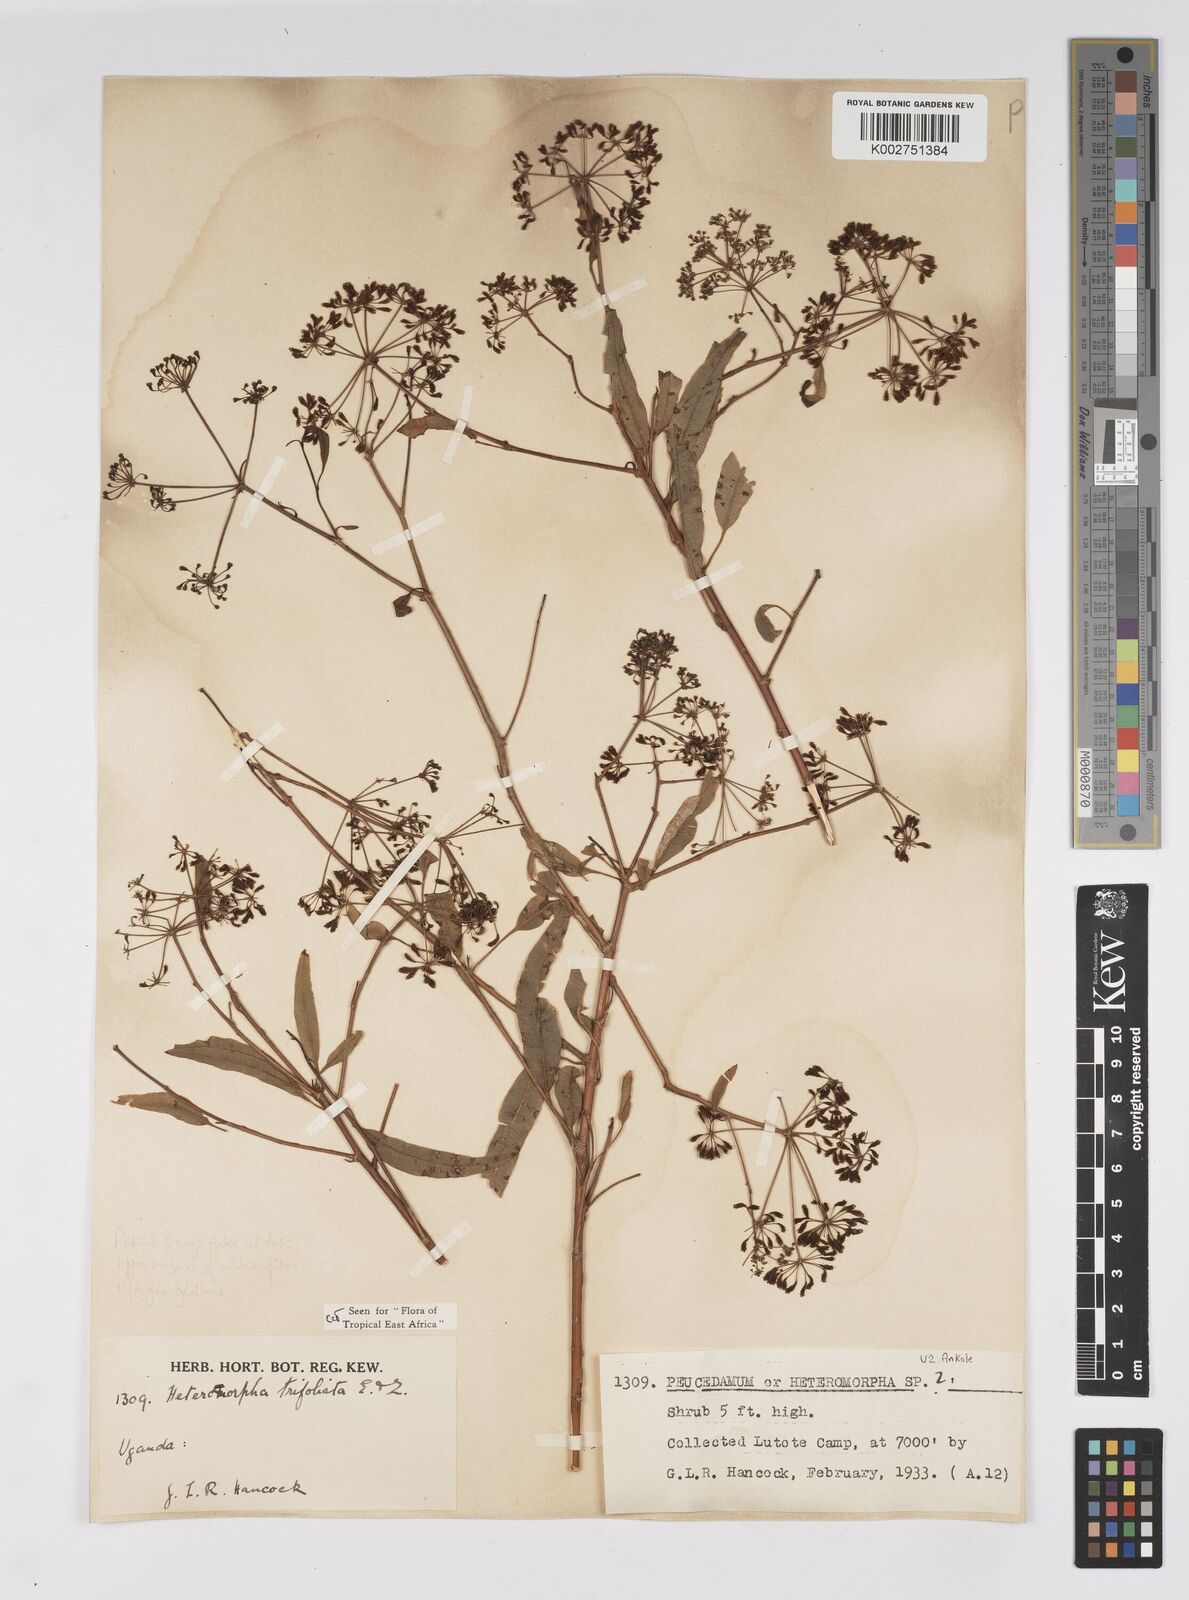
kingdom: Plantae
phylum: Tracheophyta
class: Magnoliopsida
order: Apiales
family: Apiaceae
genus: Heteromorpha
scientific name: Heteromorpha arborescens
